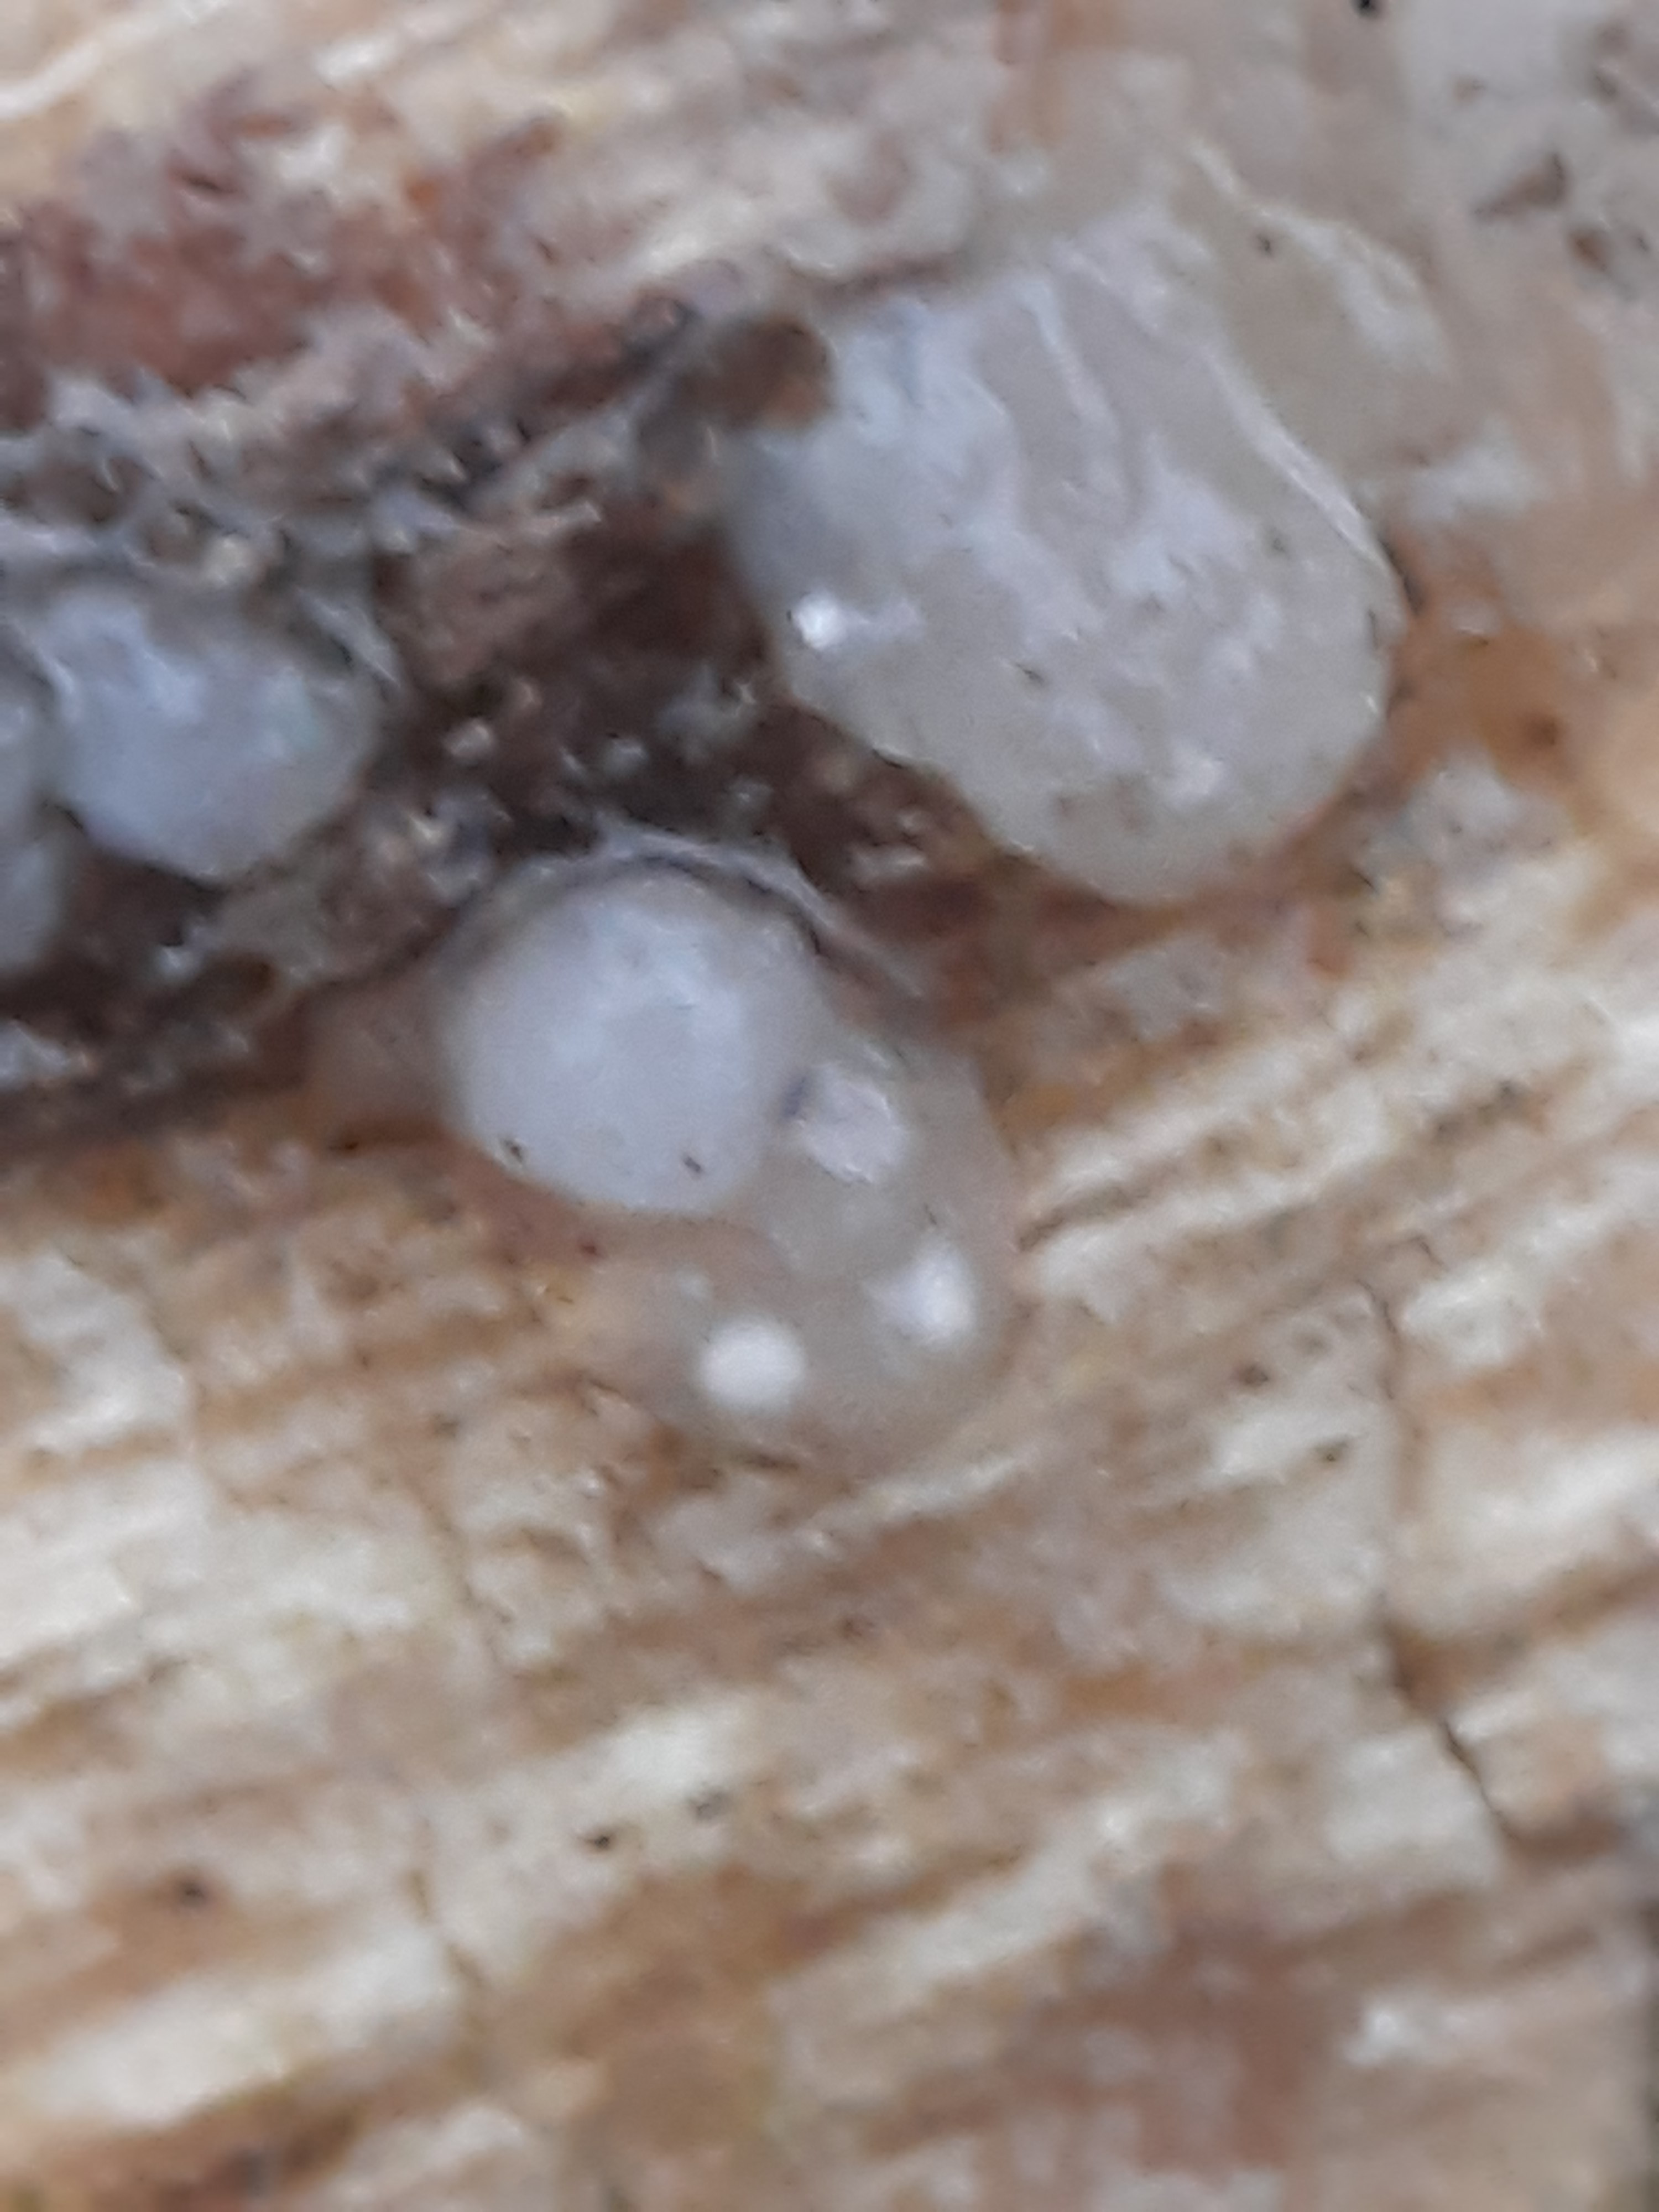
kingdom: Fungi
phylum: Basidiomycota
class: Agaricomycetes
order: Auriculariales
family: Hyaloriaceae
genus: Myxarium
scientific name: Myxarium nucleatum
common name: klar bævretop
